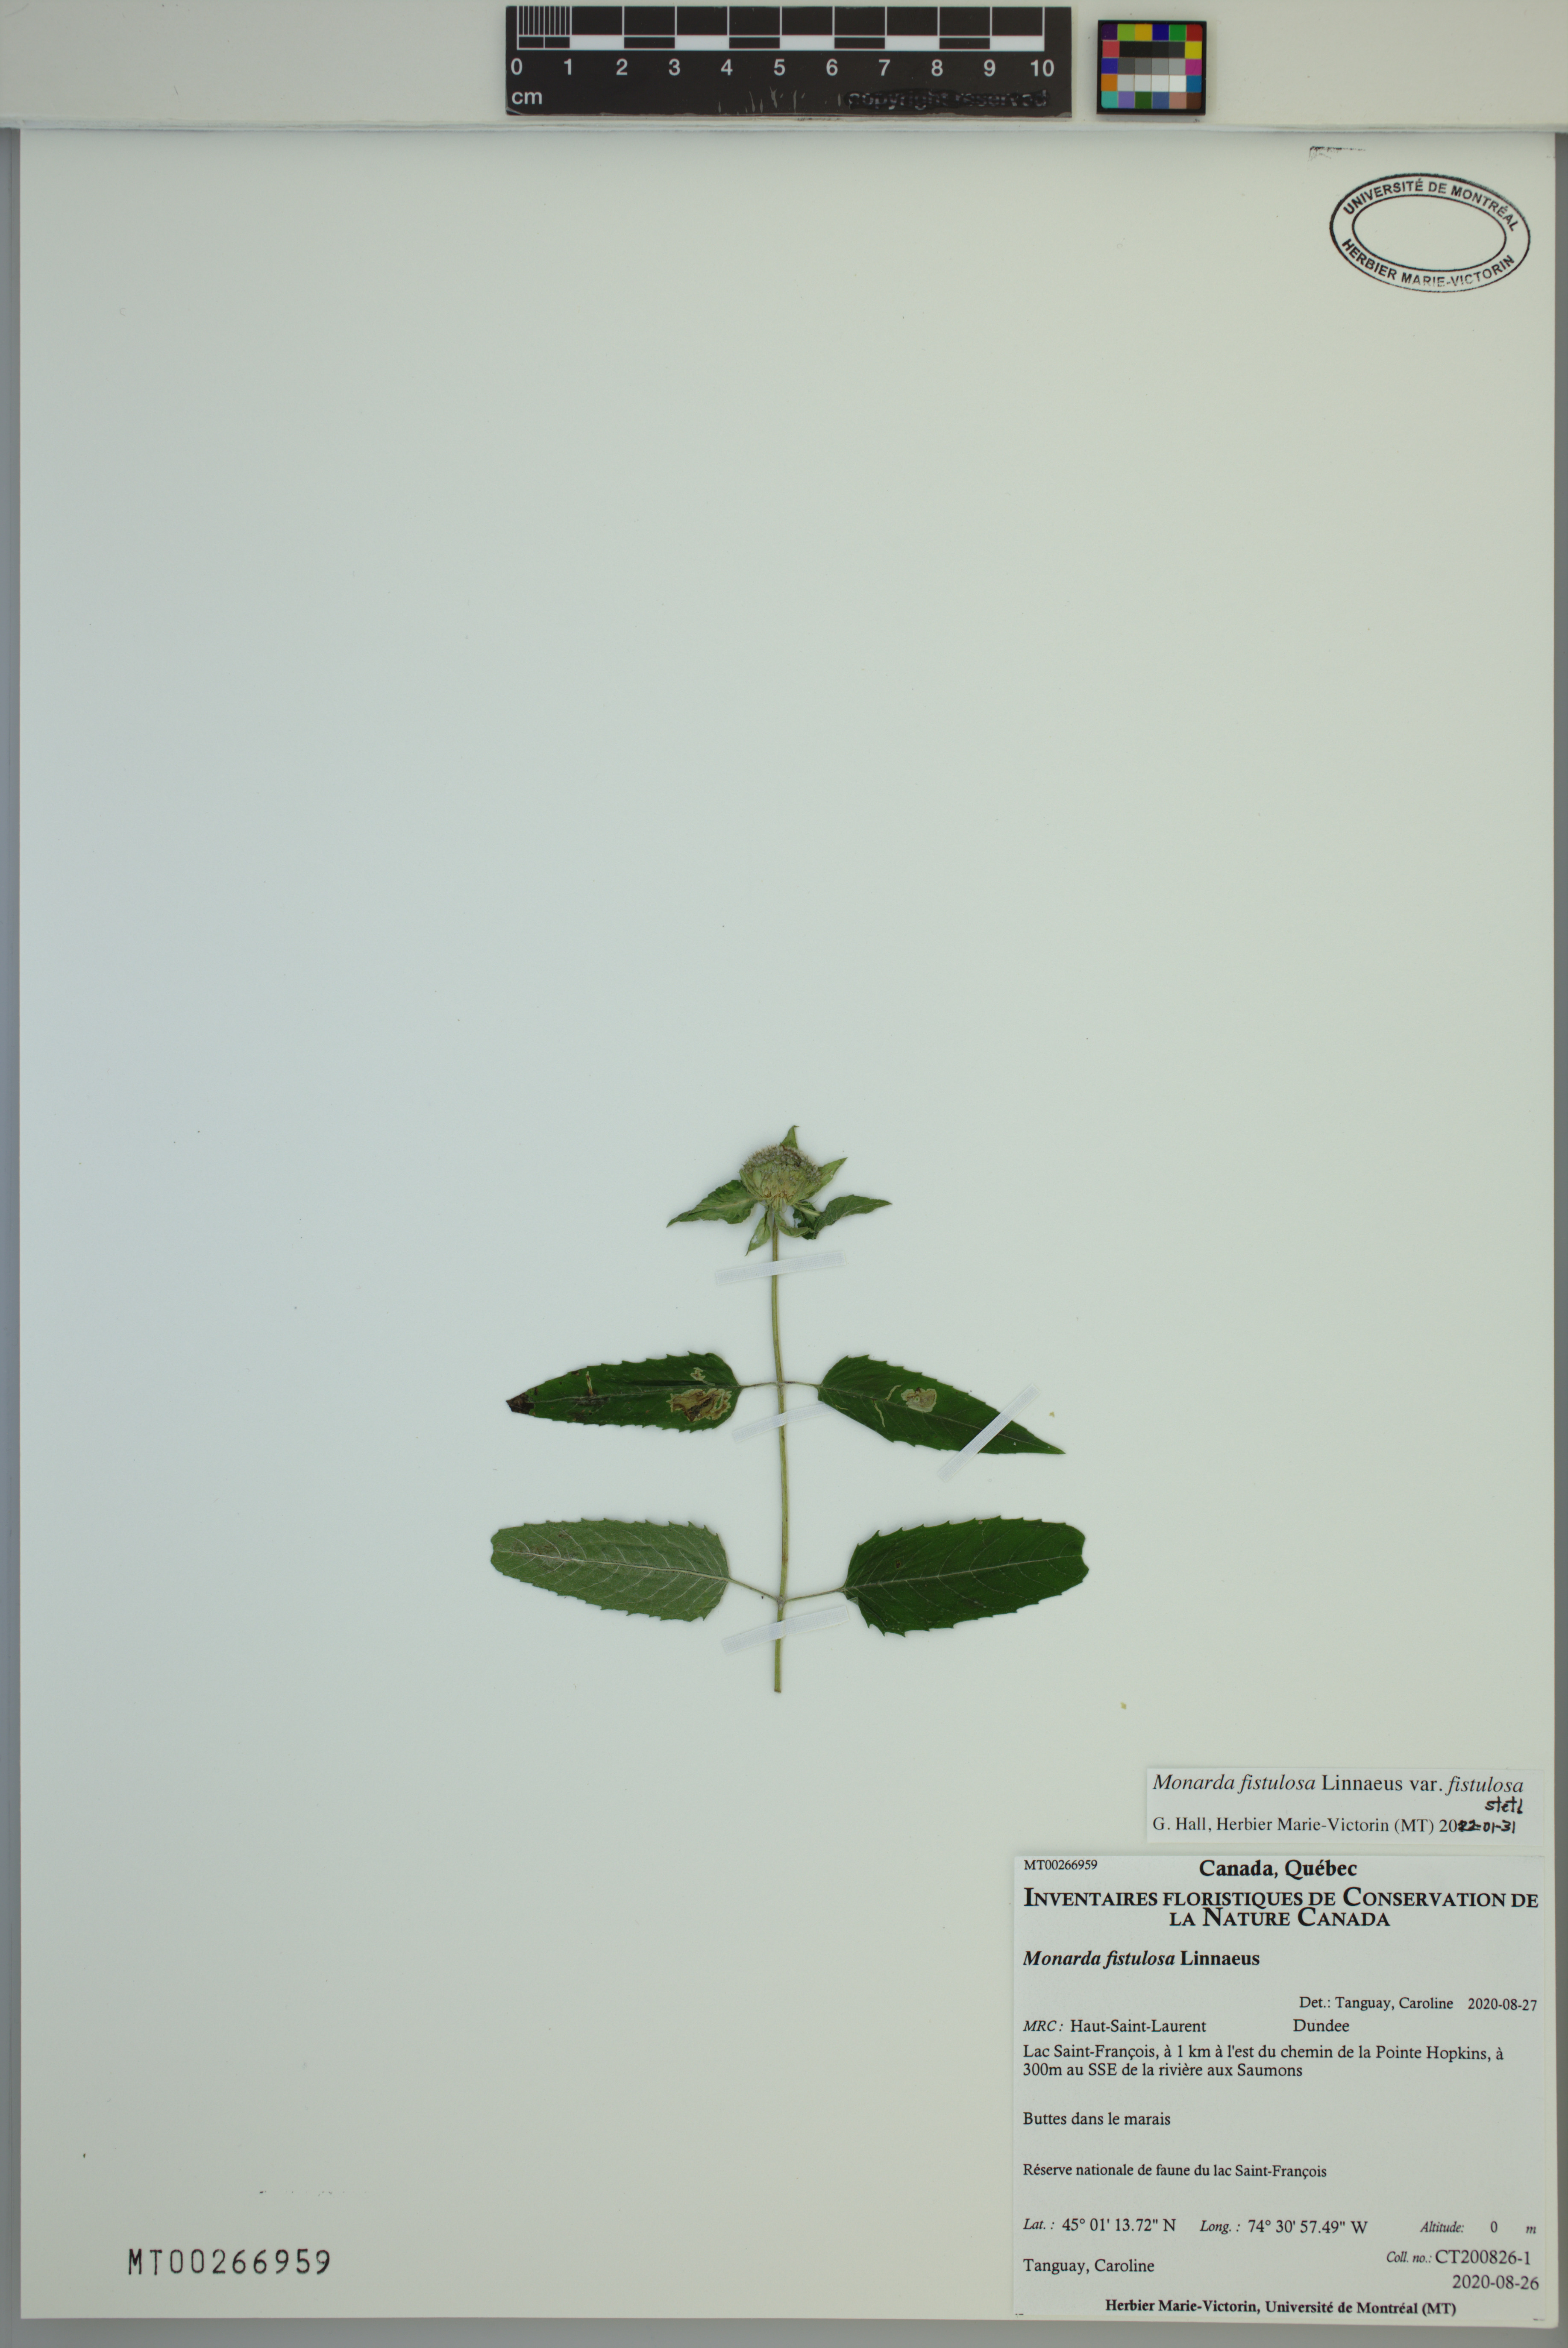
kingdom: Plantae
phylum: Tracheophyta
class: Magnoliopsida
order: Lamiales
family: Lamiaceae
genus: Monarda
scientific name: Monarda fistulosa
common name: Purple beebalm
